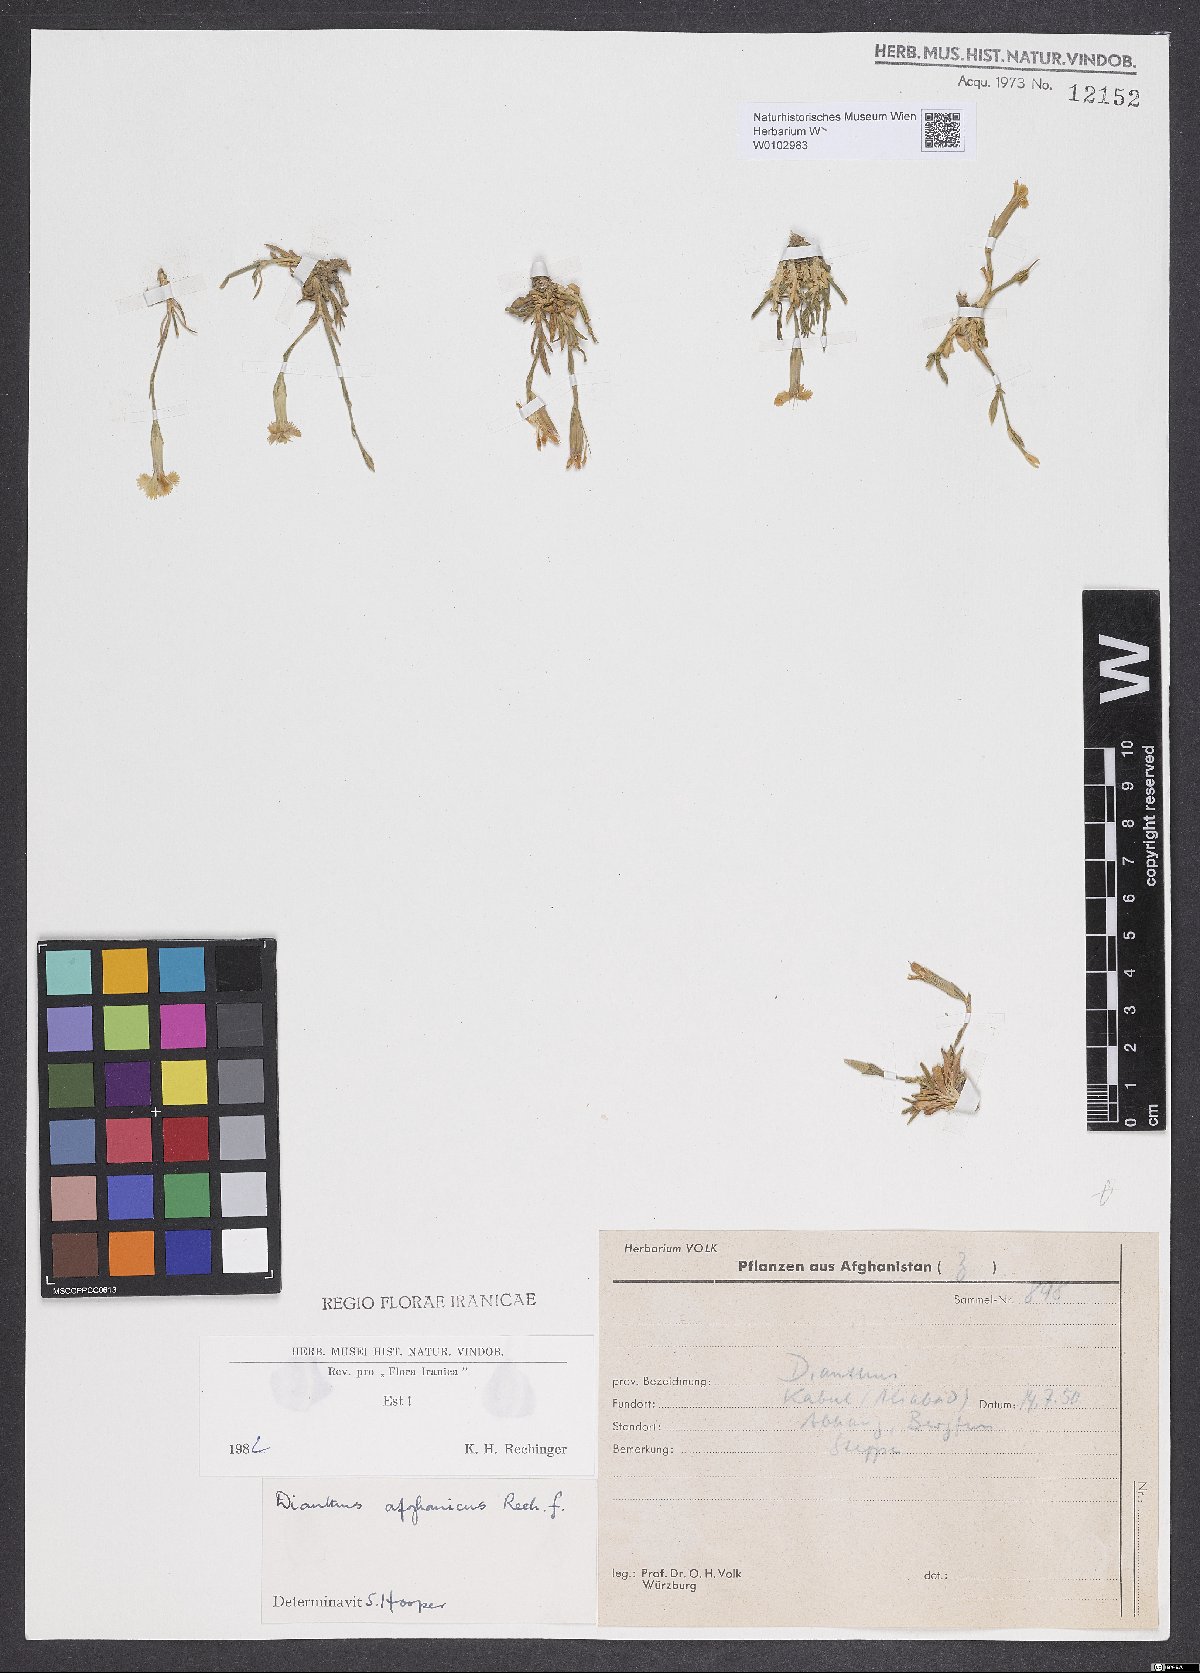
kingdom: Plantae
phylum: Tracheophyta
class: Magnoliopsida
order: Caryophyllales
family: Caryophyllaceae
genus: Dianthus
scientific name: Dianthus afghanicus
